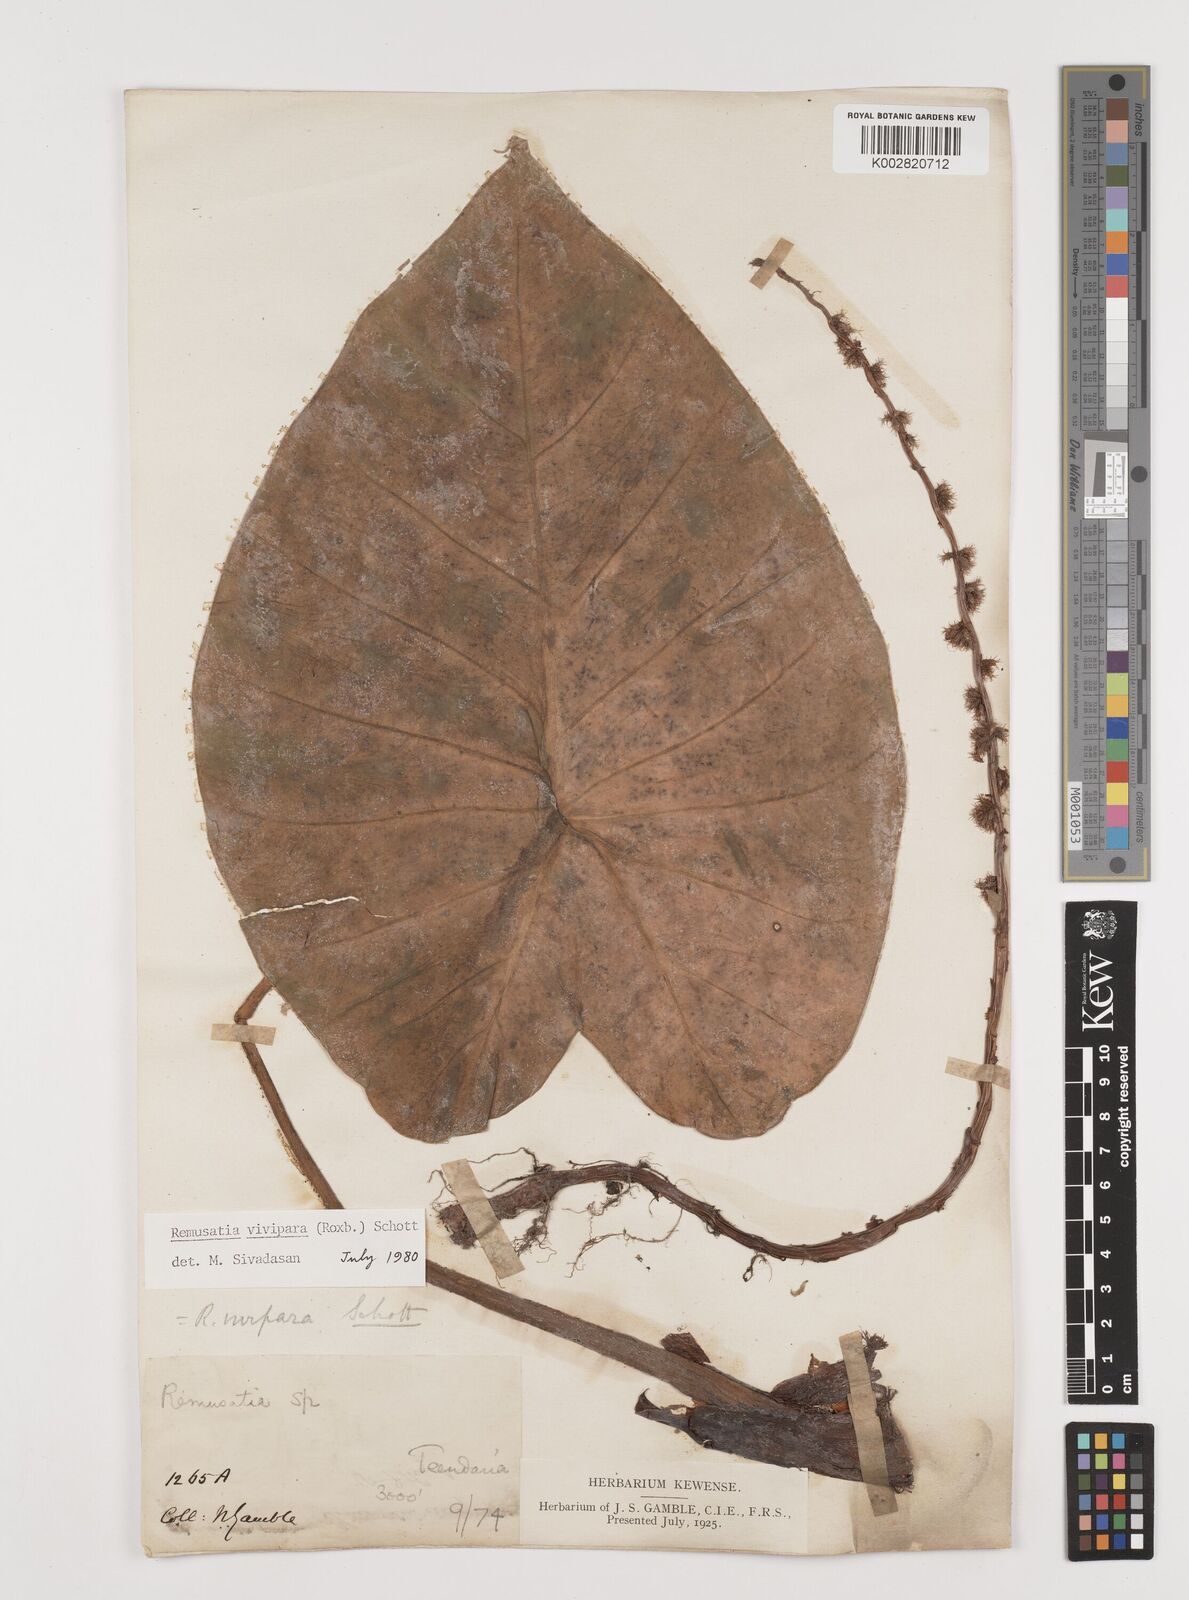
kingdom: Plantae
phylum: Tracheophyta
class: Liliopsida
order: Alismatales
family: Araceae
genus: Remusatia
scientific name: Remusatia vivipara
